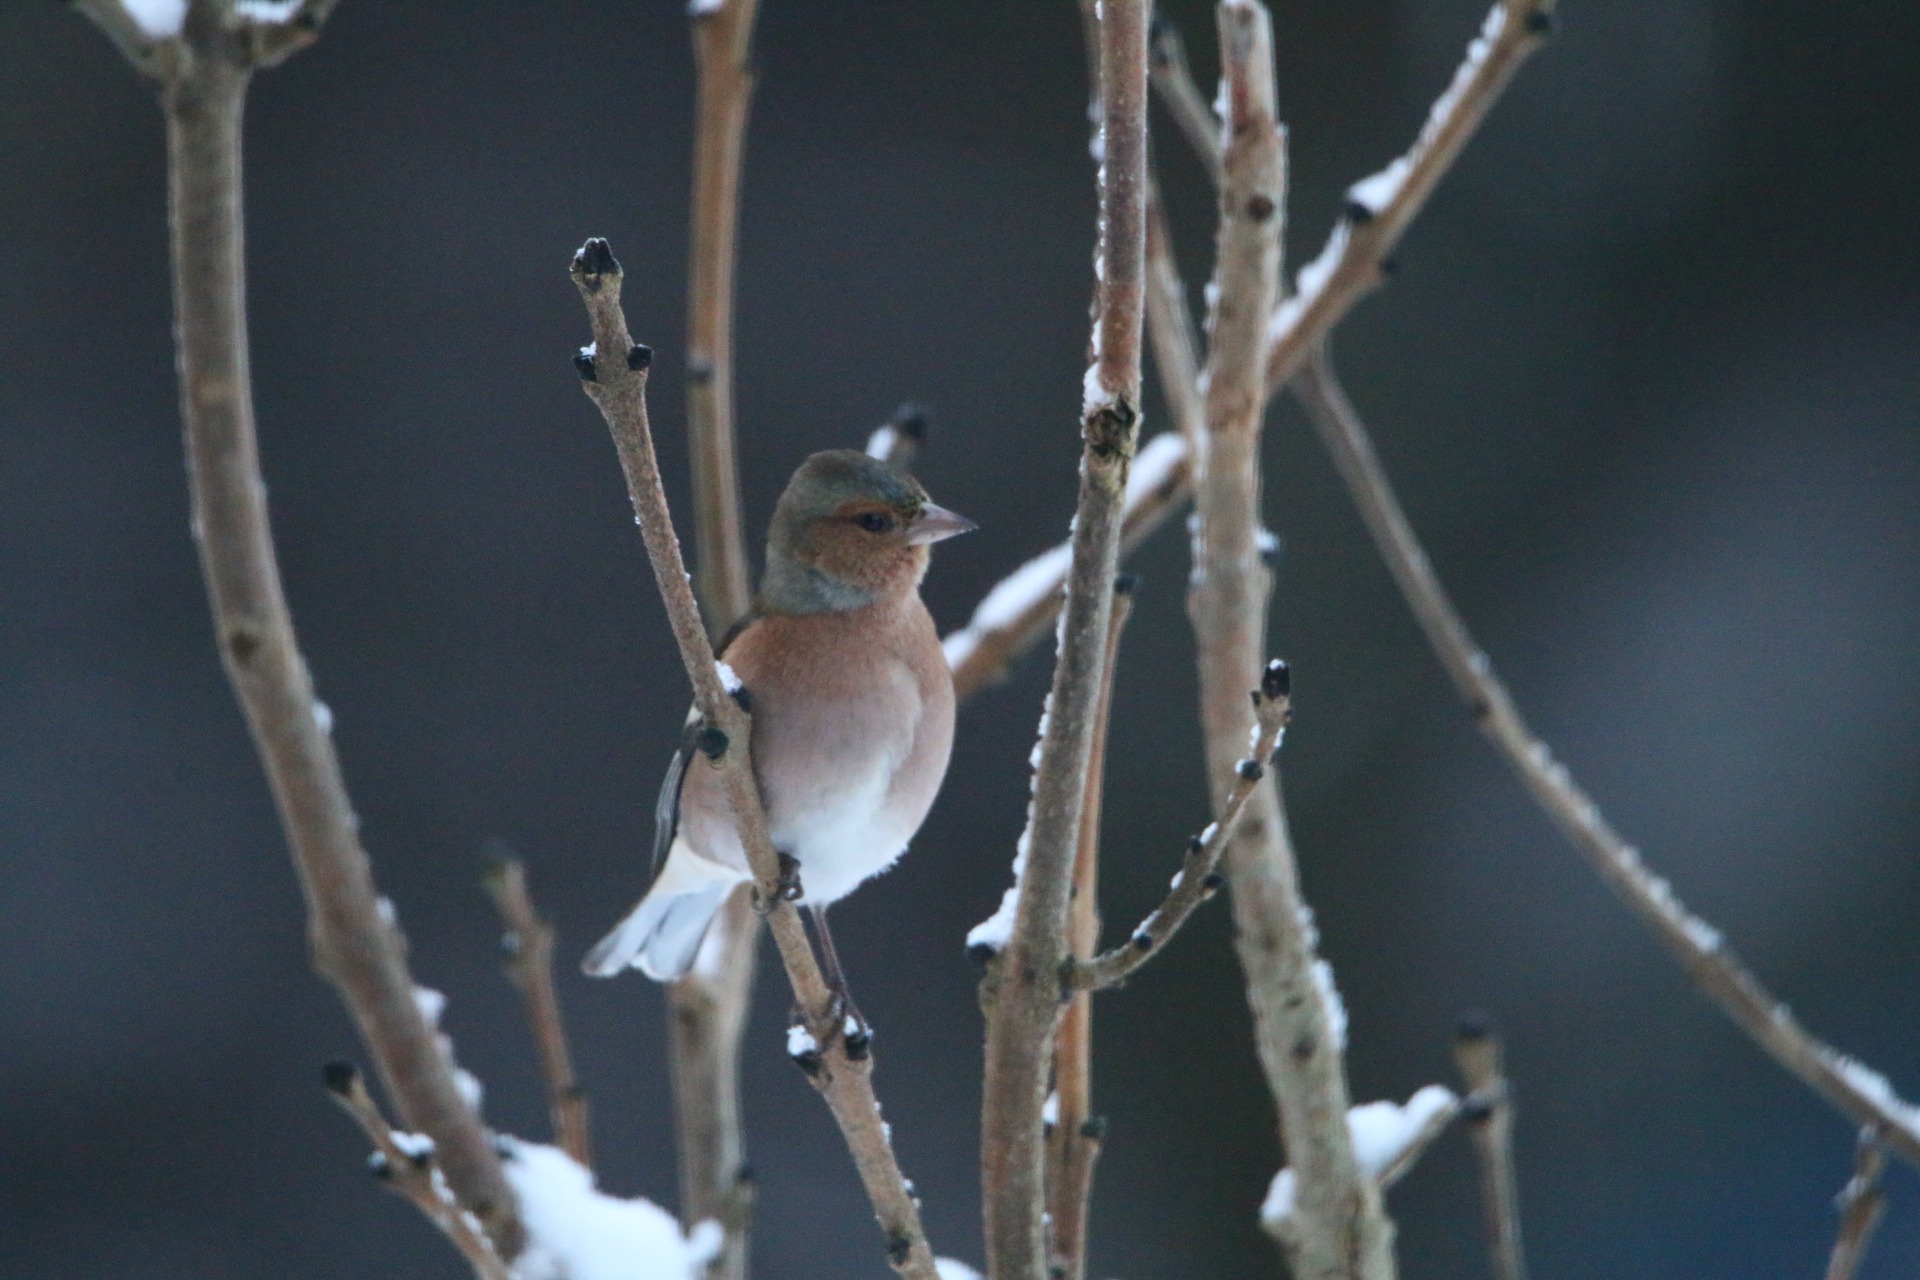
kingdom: Animalia
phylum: Chordata
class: Aves
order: Passeriformes
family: Fringillidae
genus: Fringilla
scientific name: Fringilla coelebs
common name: Bogfinke
